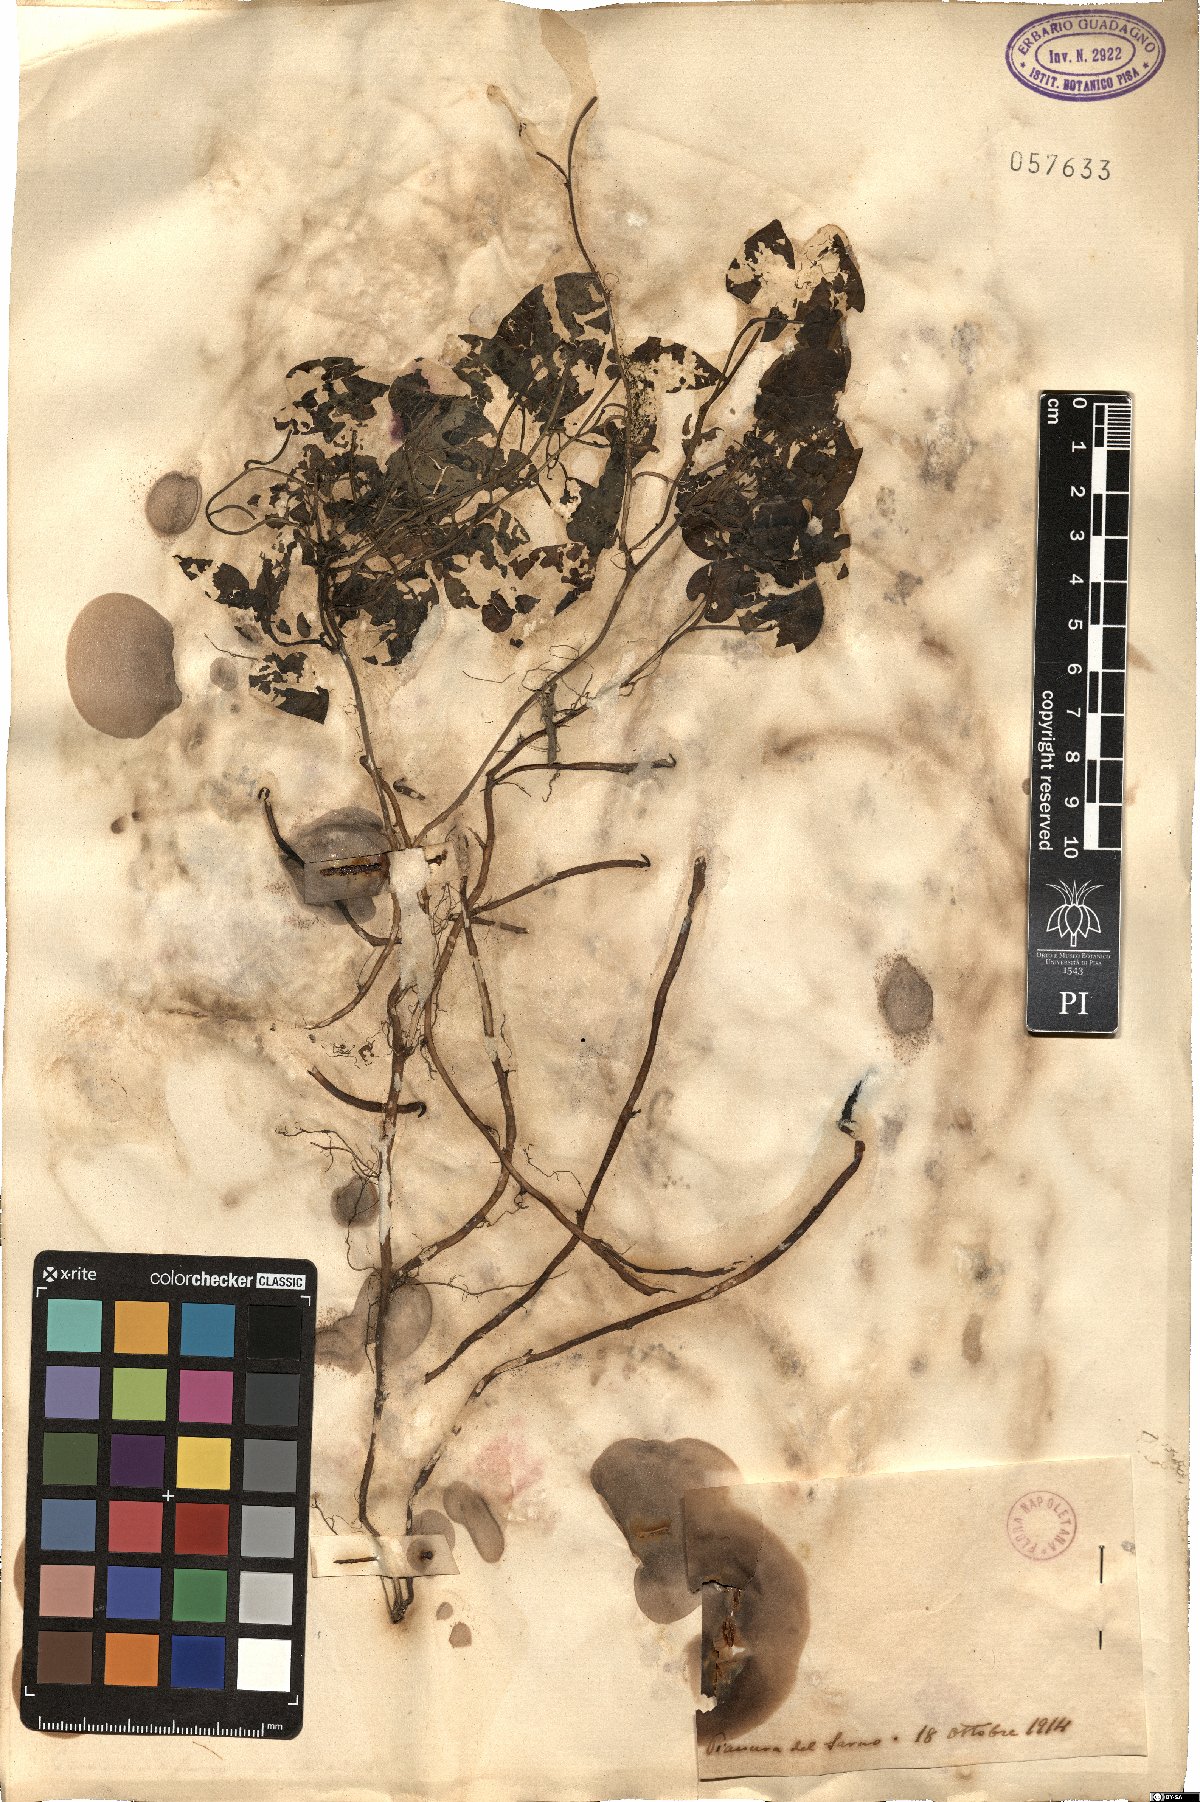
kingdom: Plantae
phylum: Tracheophyta
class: Magnoliopsida
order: Solanales
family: Convolvulaceae
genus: Convolvulus
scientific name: Convolvulus
